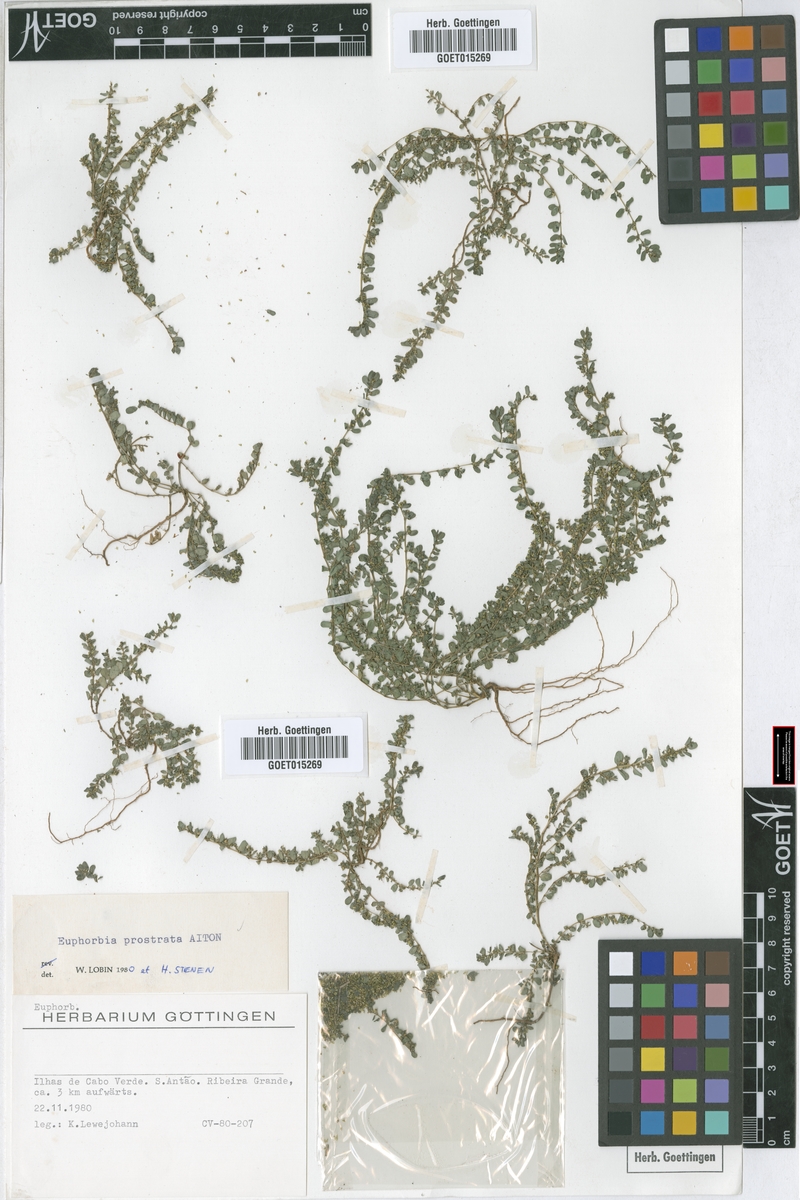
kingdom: Plantae
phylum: Tracheophyta
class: Magnoliopsida
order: Malpighiales
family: Euphorbiaceae
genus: Euphorbia
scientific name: Euphorbia prostrata
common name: Prostrate sandmat
